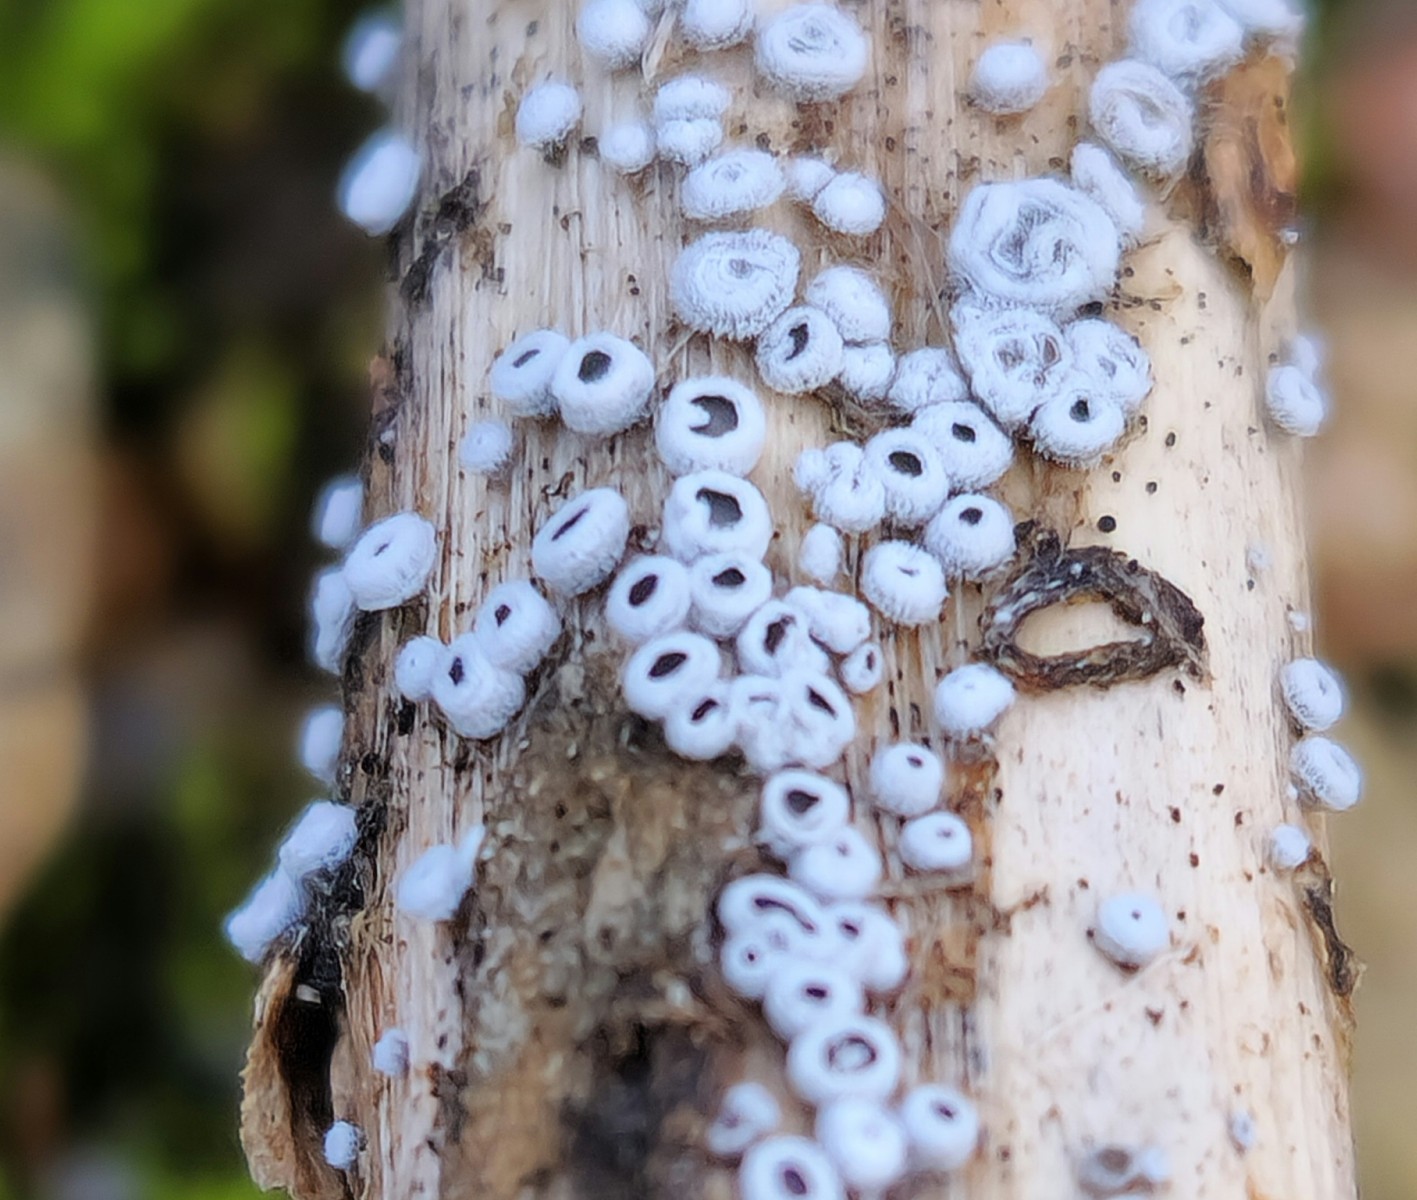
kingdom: Fungi
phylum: Basidiomycota
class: Agaricomycetes
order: Agaricales
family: Niaceae
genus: Lachnella
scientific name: Lachnella alboviolascens
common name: grå frynserede
